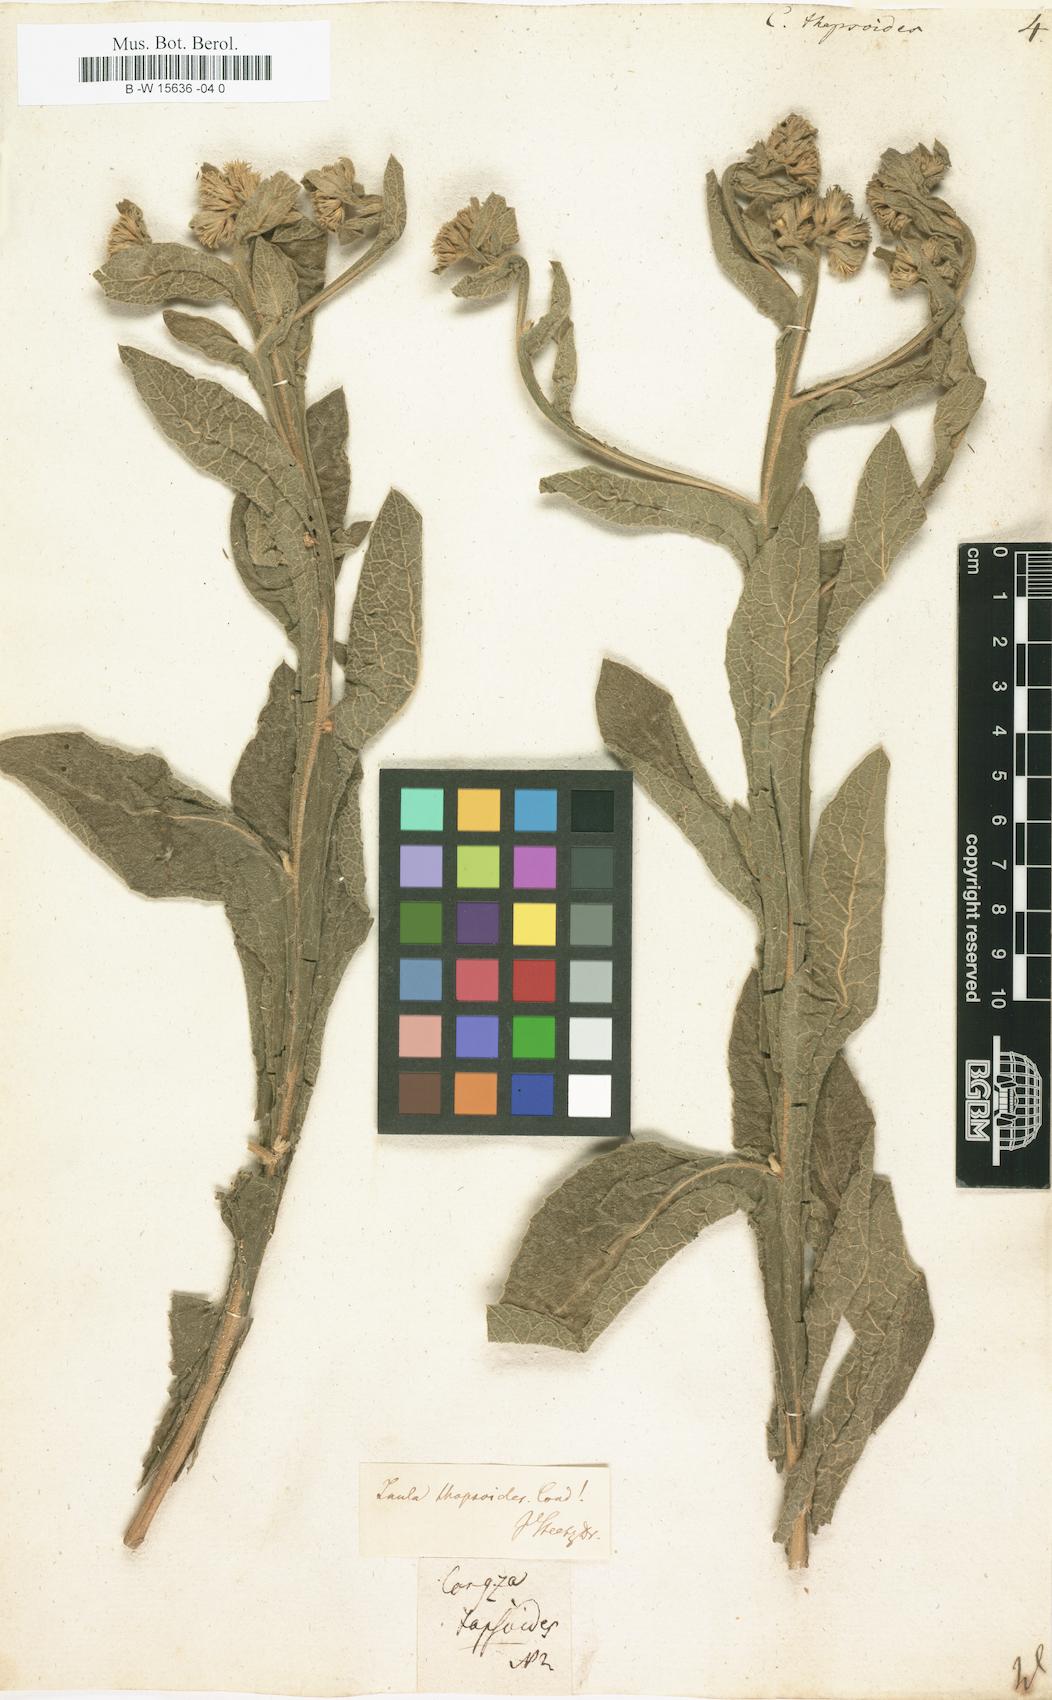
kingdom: Plantae
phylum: Tracheophyta
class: Magnoliopsida
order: Asterales
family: Asteraceae
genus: Inula
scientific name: Inula thapsoides
